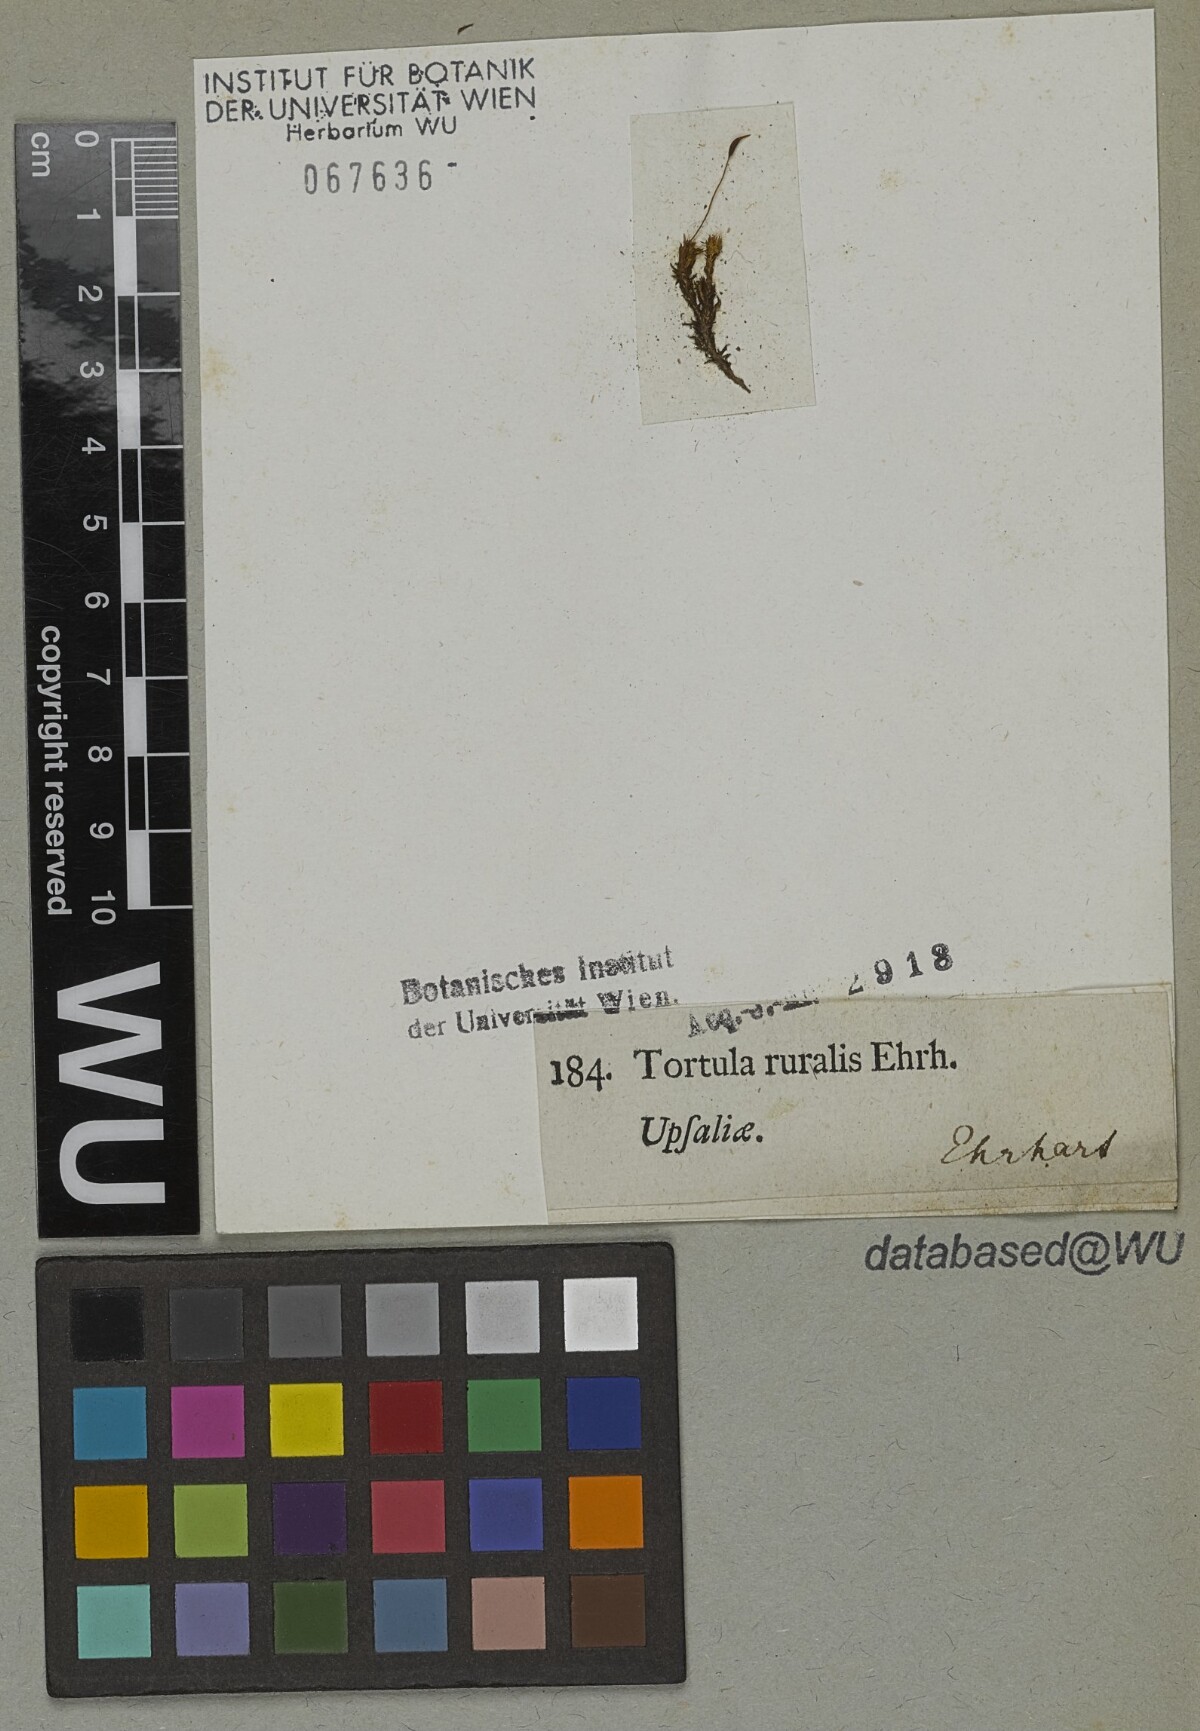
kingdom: Plantae
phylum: Bryophyta
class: Bryopsida
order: Pottiales
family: Pottiaceae
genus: Syntrichia
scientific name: Syntrichia ruralis
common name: Sidewalk screw moss
